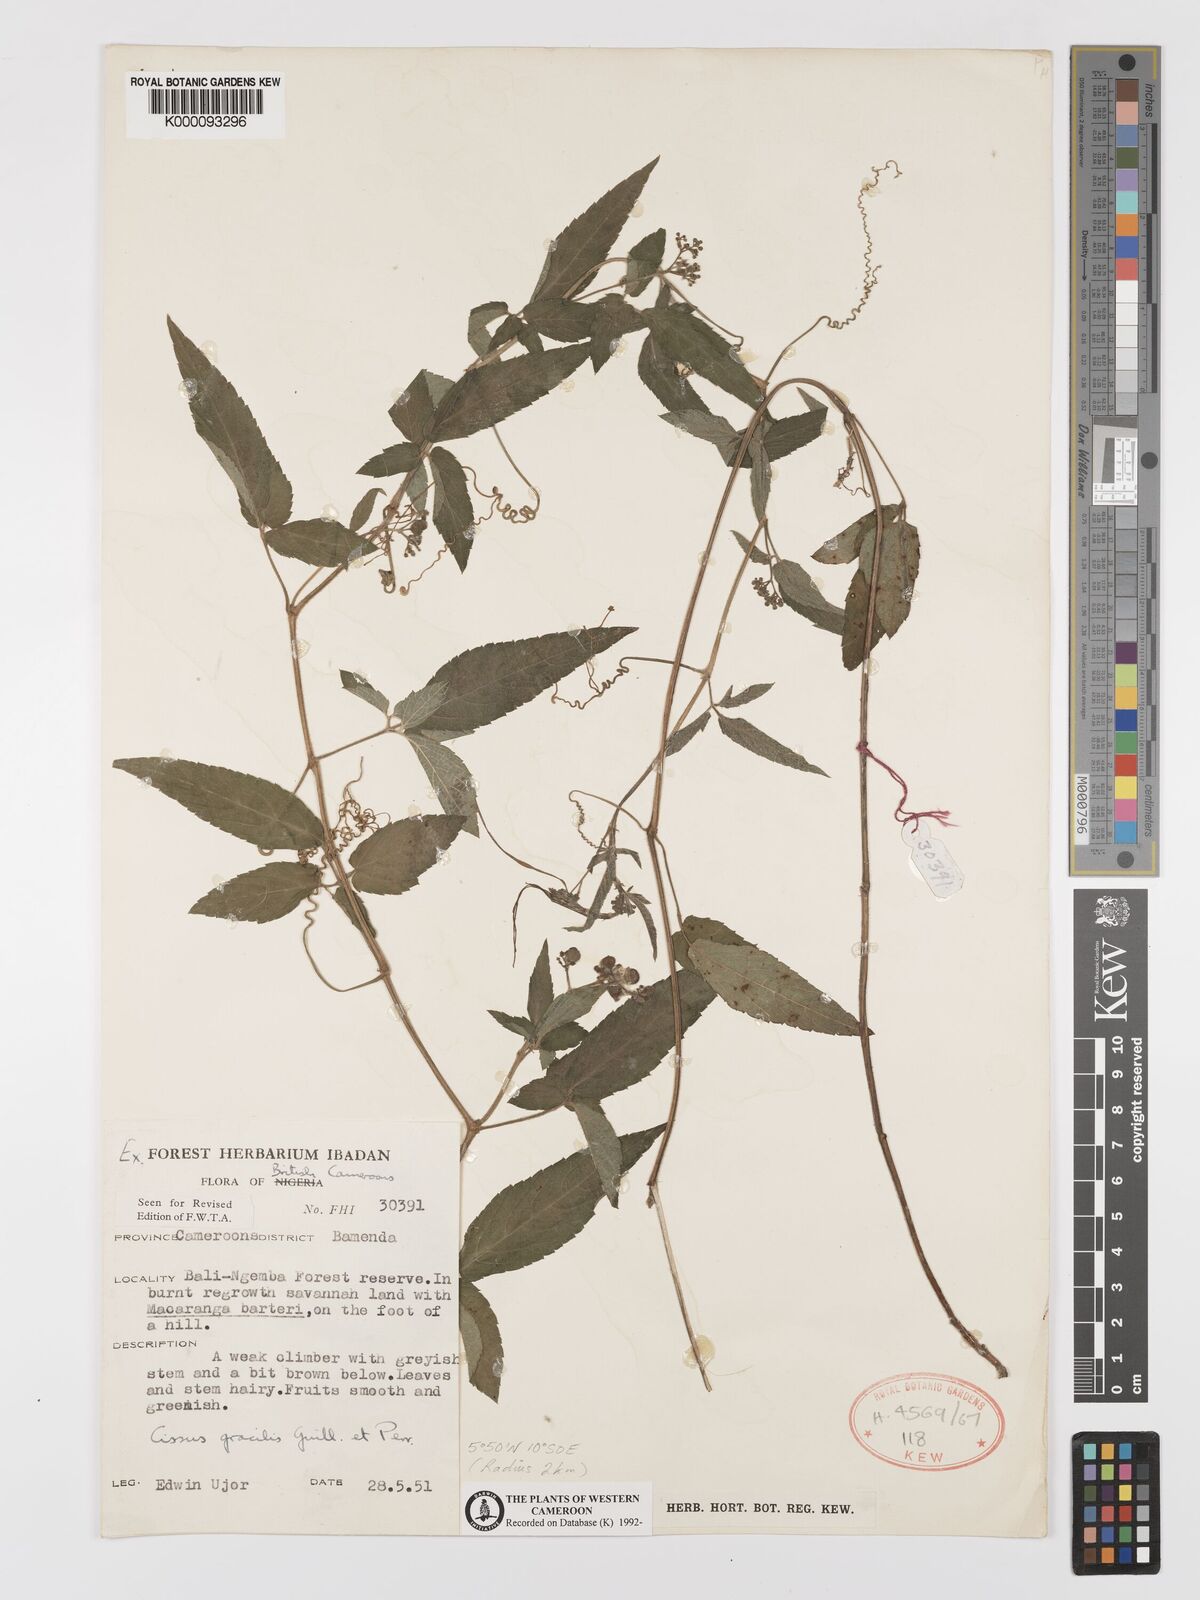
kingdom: Plantae
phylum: Tracheophyta
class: Magnoliopsida
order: Vitales
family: Vitaceae
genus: Afrocayratia
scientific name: Afrocayratia gracilis
